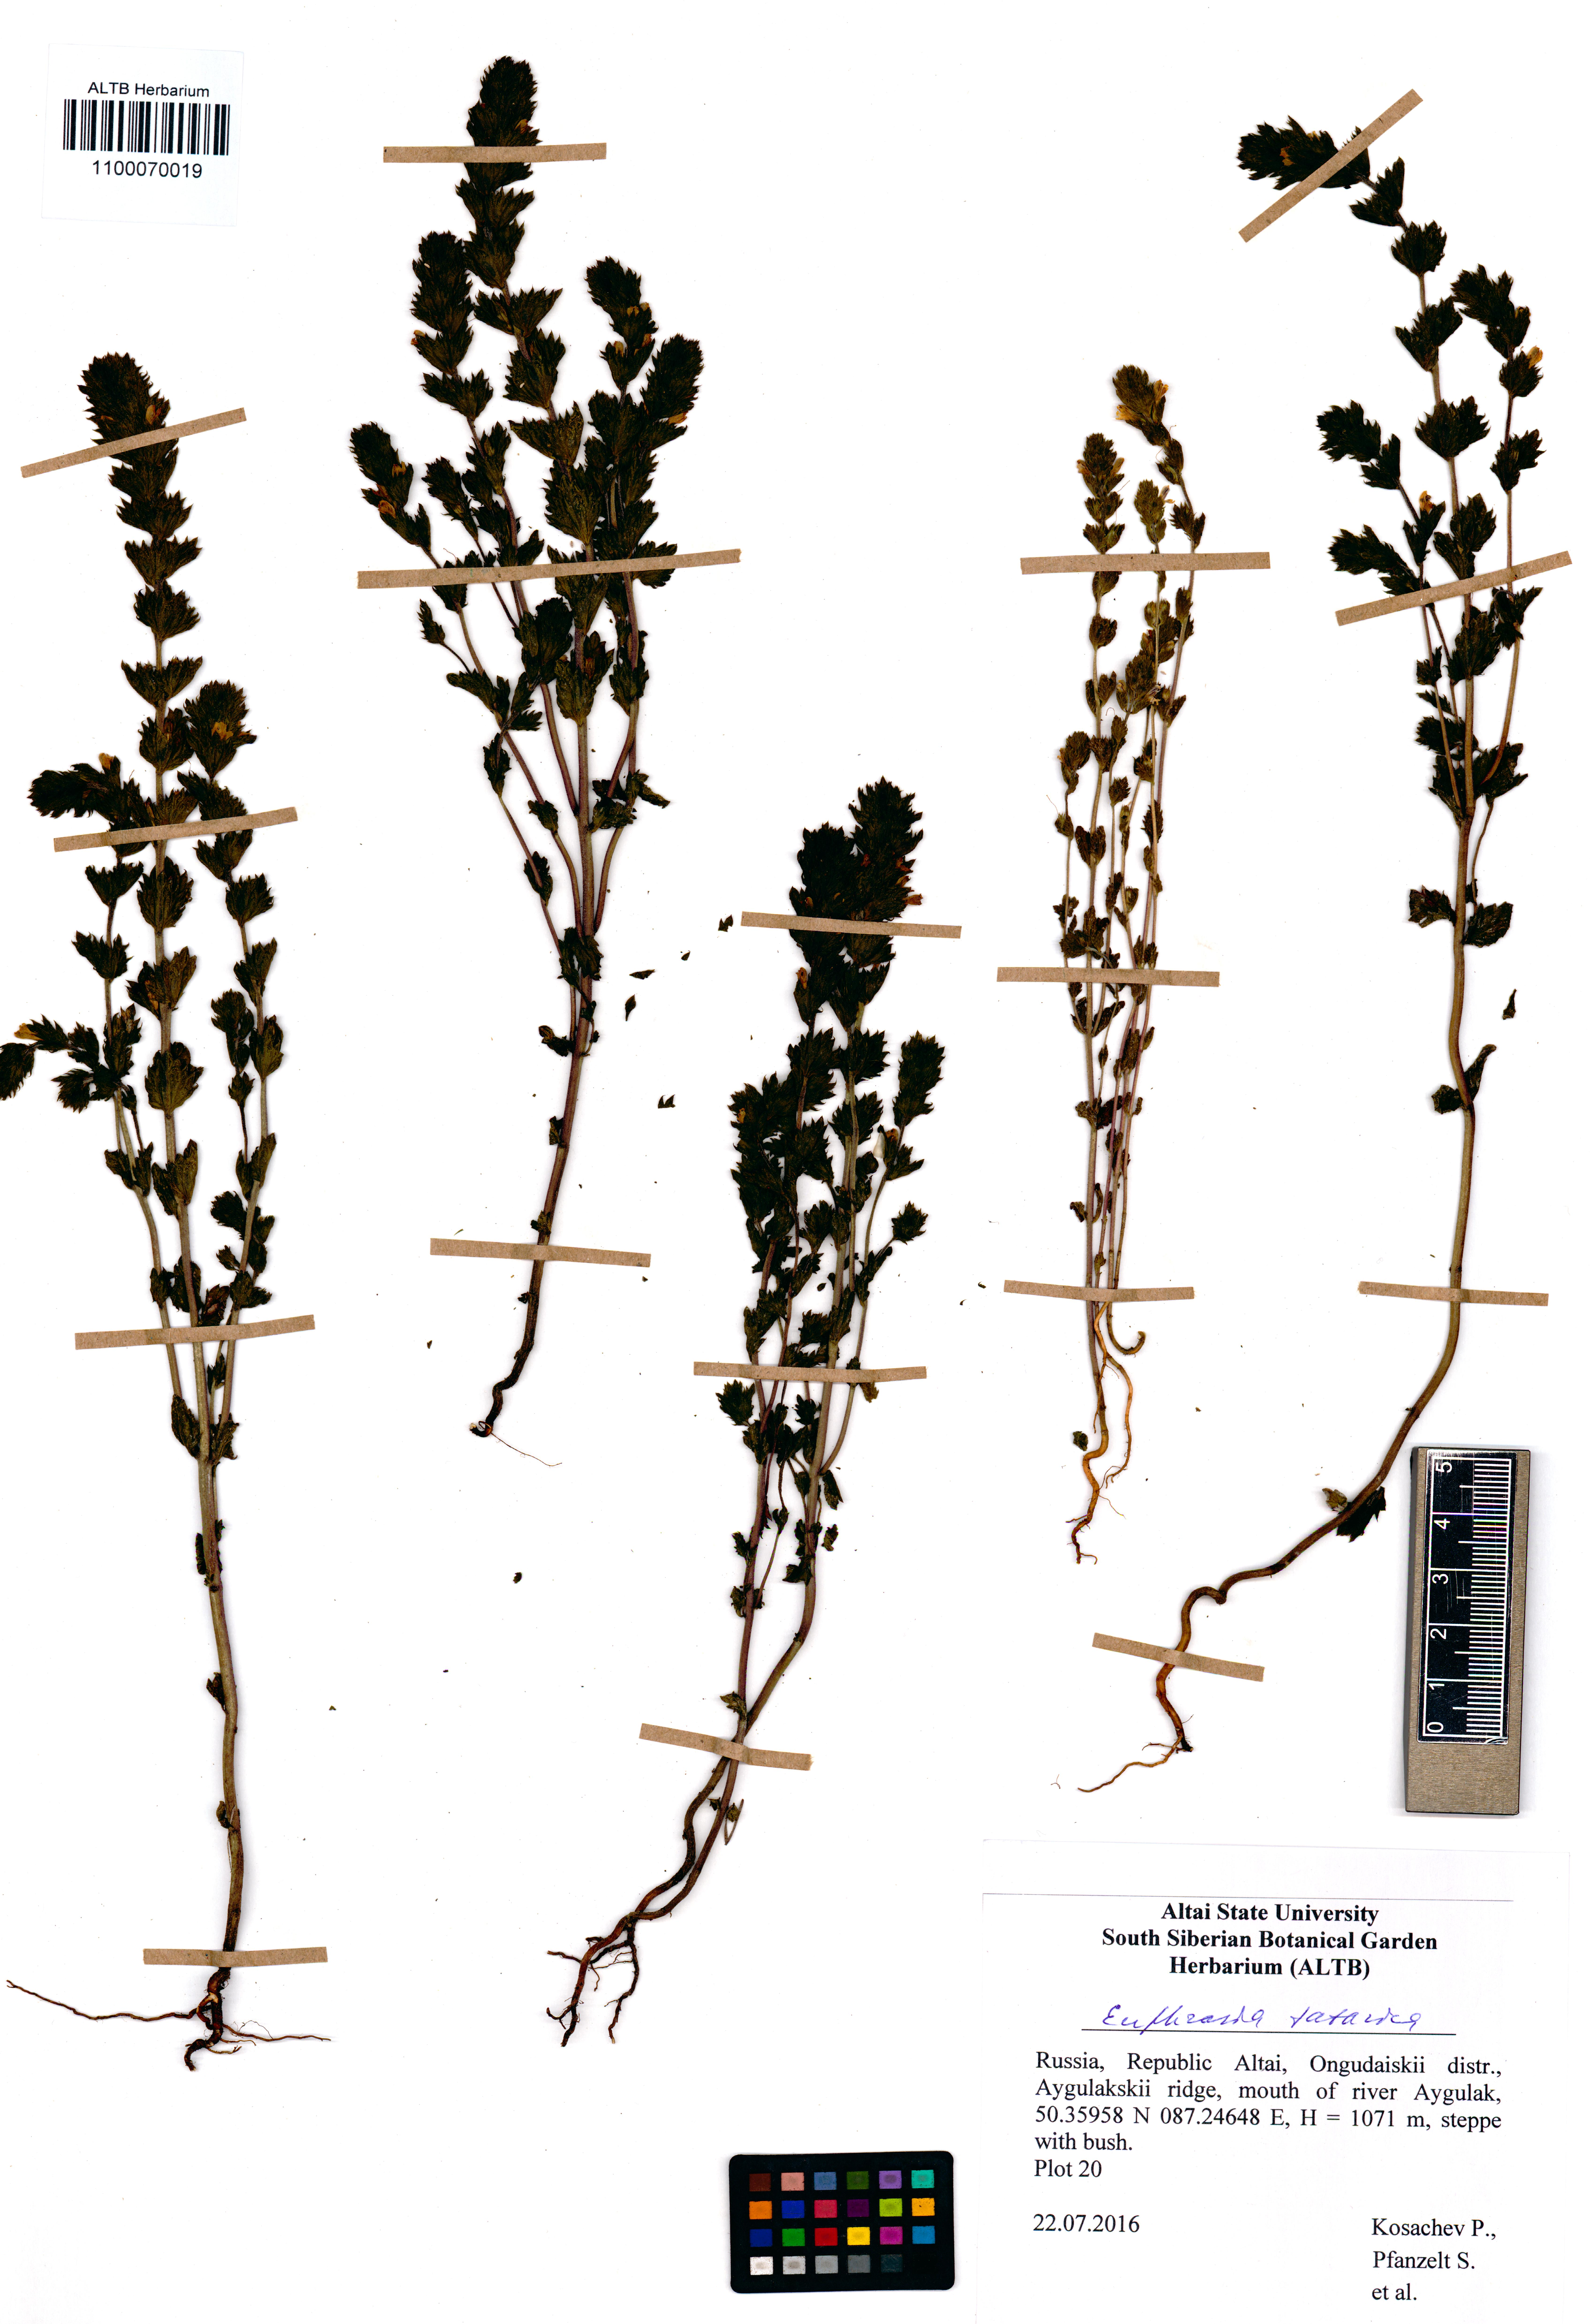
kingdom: Plantae
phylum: Tracheophyta
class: Magnoliopsida
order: Lamiales
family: Orobanchaceae
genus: Euphrasia
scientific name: Euphrasia pectinata
